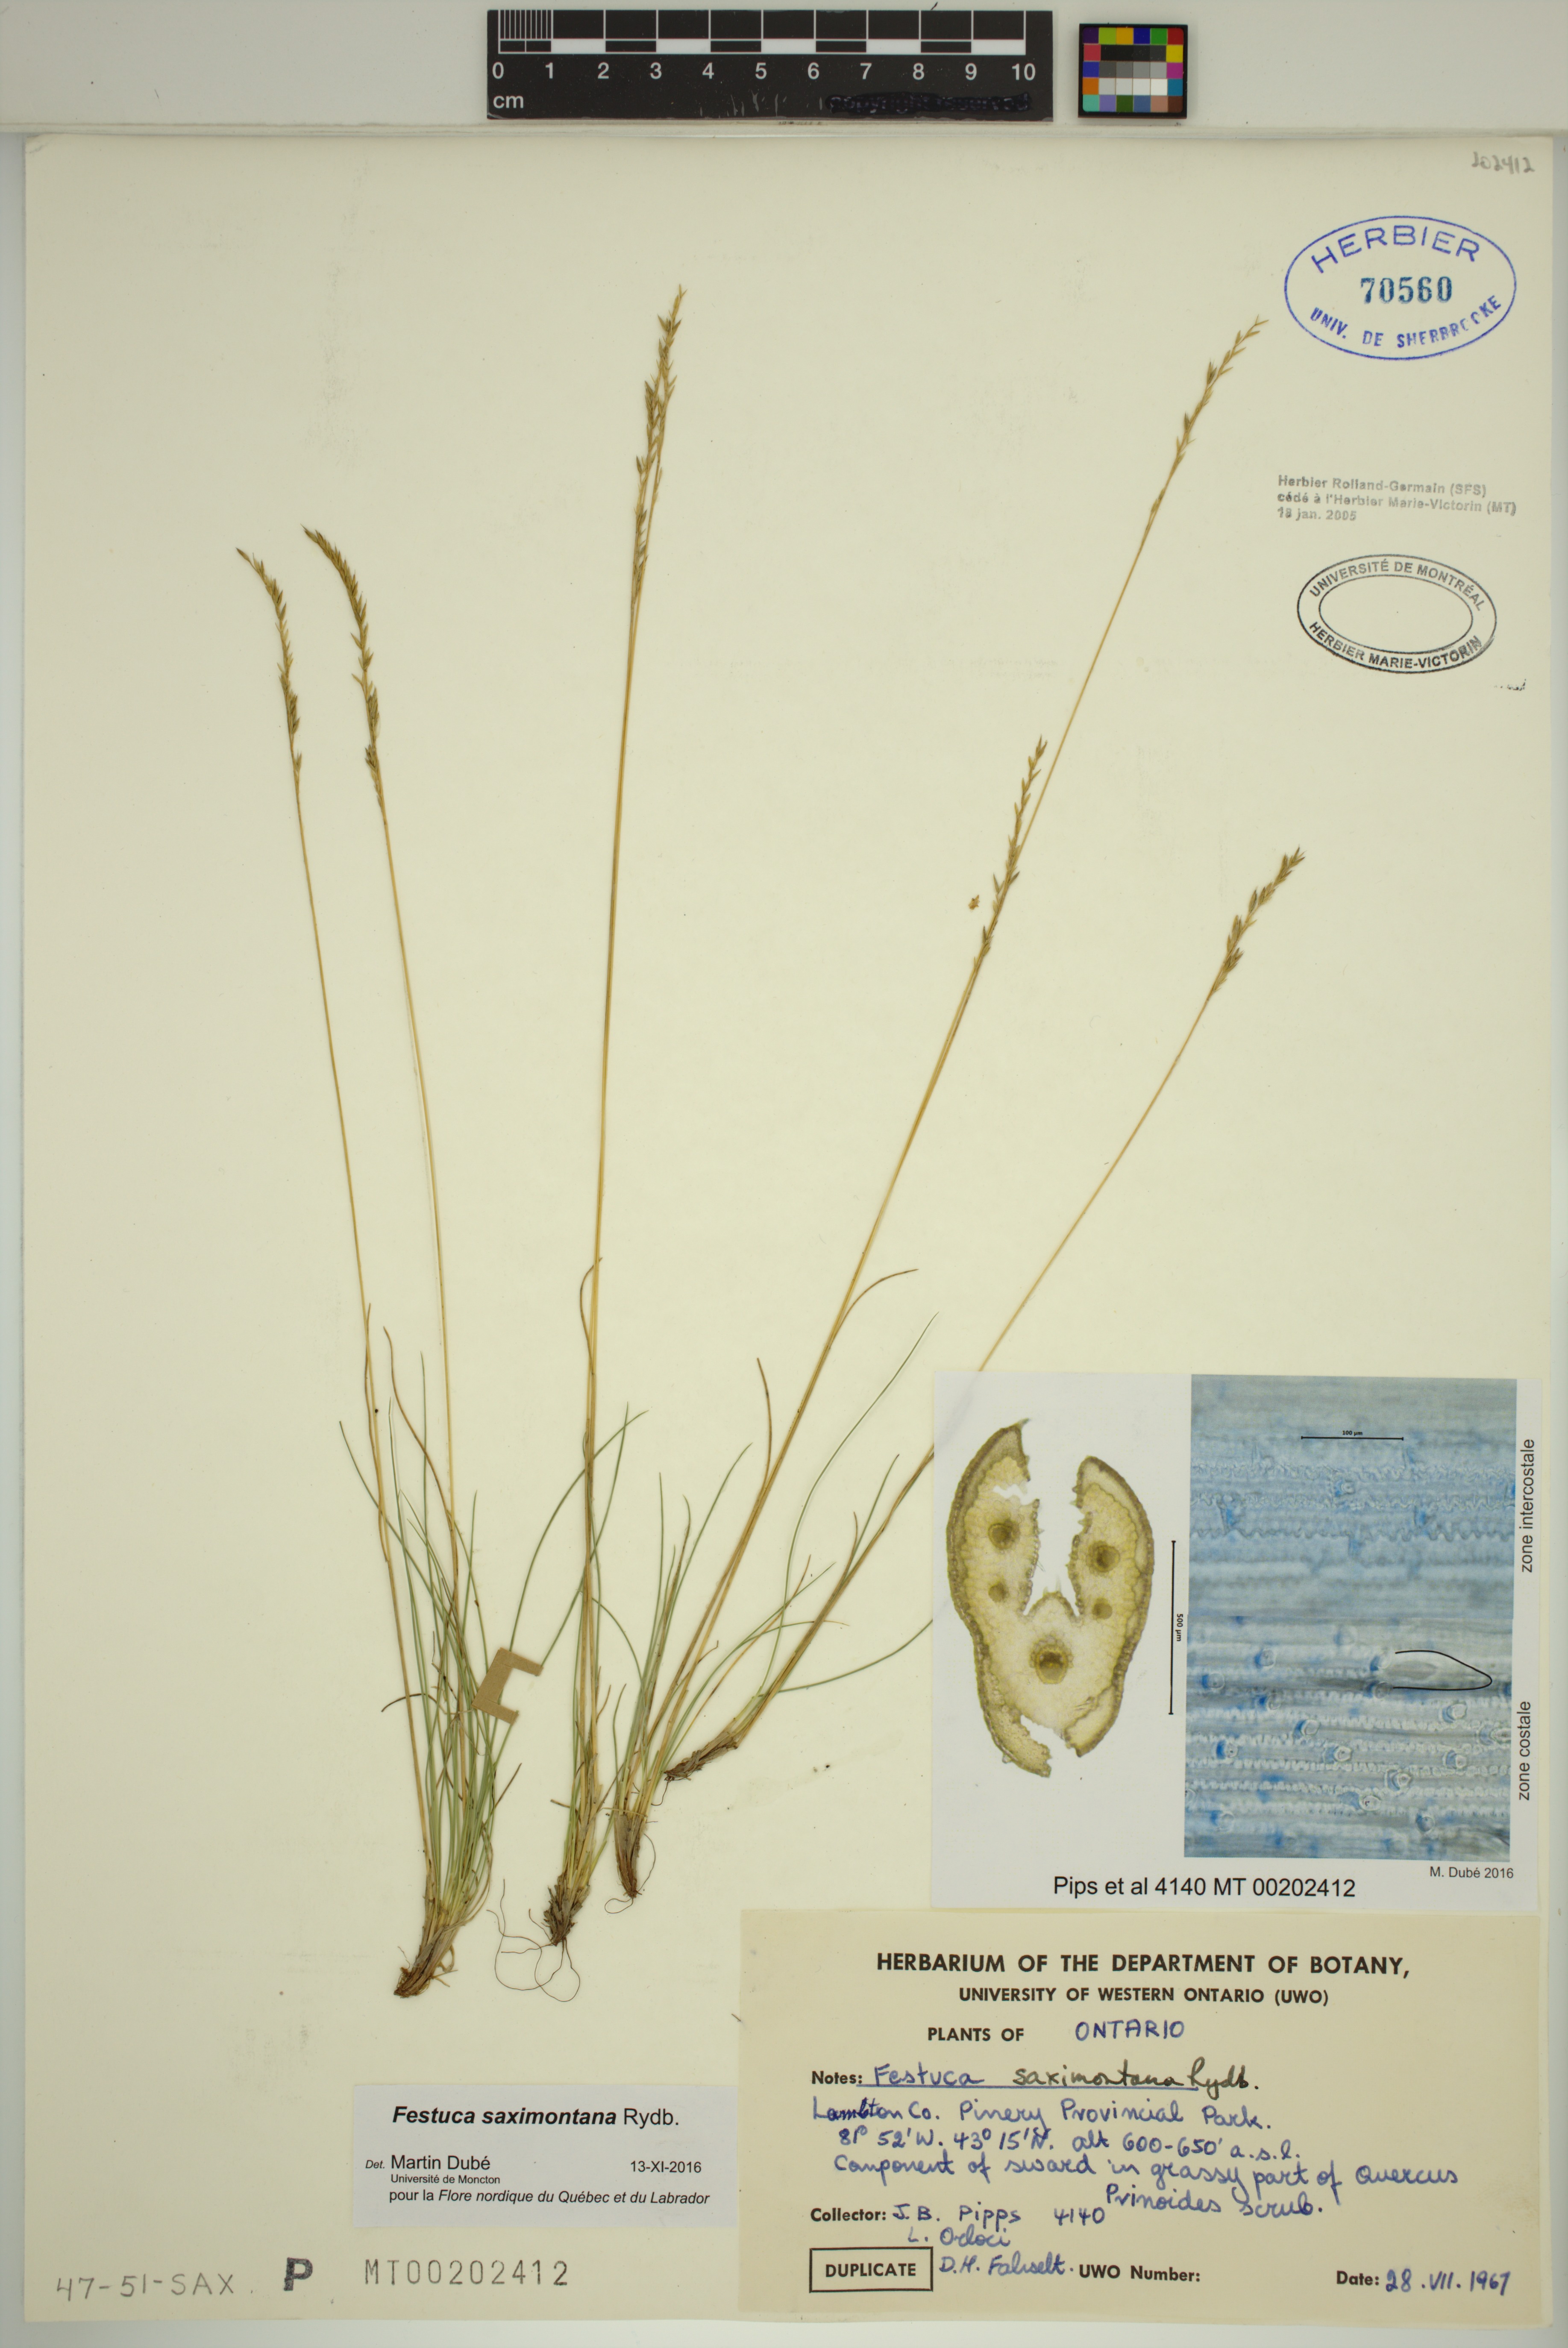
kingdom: Plantae
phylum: Tracheophyta
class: Liliopsida
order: Poales
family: Poaceae
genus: Festuca
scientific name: Festuca saximontana
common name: Mountain fescue
